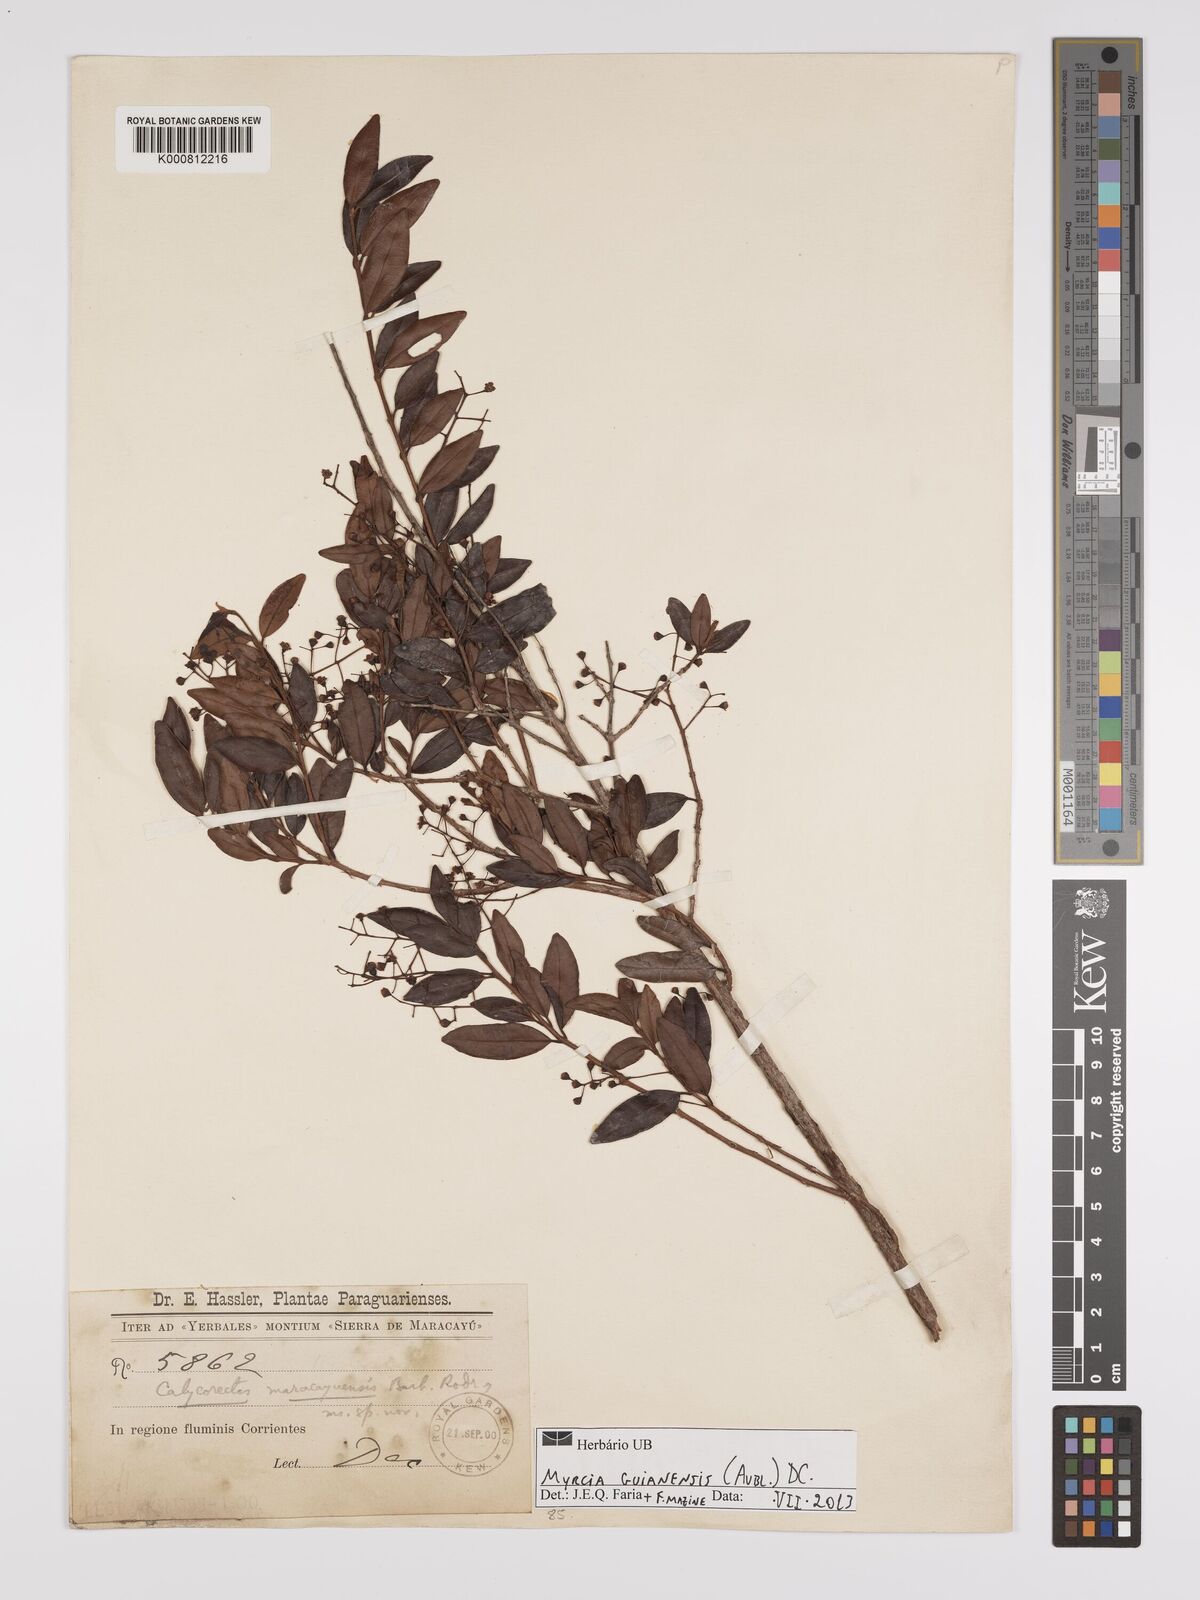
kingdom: Plantae
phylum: Tracheophyta
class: Magnoliopsida
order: Myrtales
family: Myrtaceae
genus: Myrcia
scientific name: Myrcia guianensis
